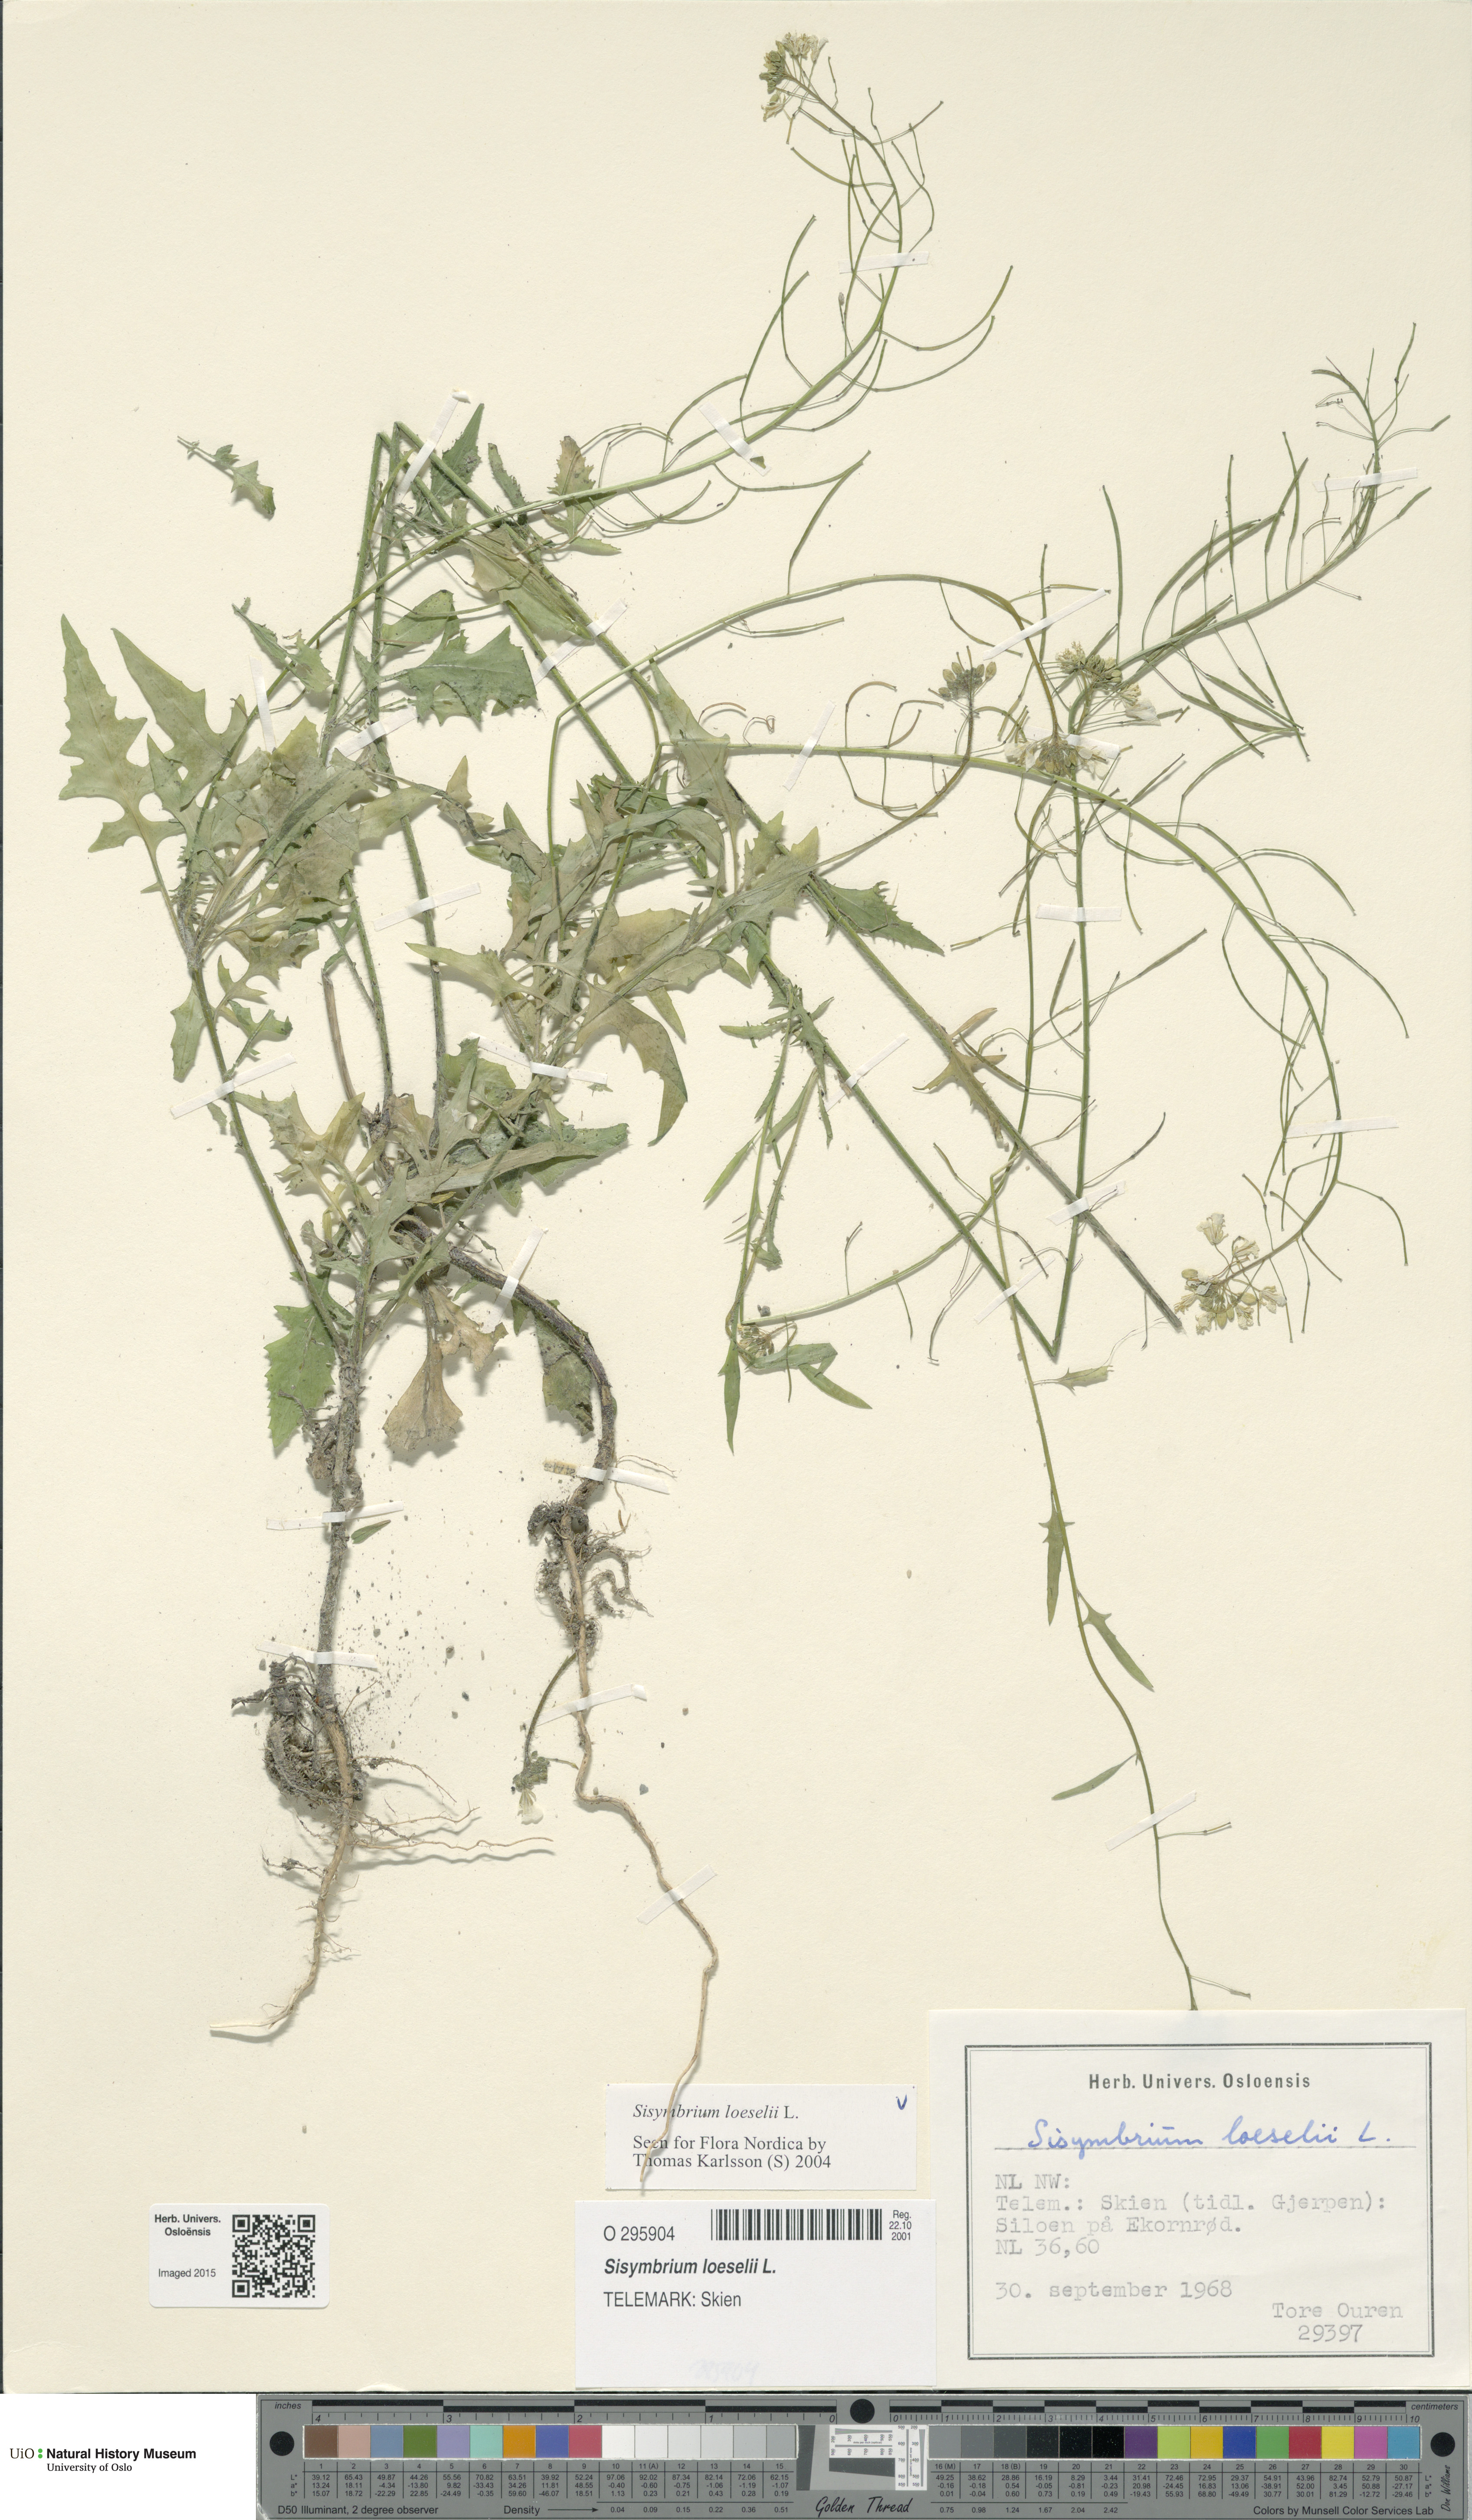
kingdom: Plantae
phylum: Tracheophyta
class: Magnoliopsida
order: Brassicales
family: Brassicaceae
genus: Sisymbrium
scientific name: Sisymbrium loeselii
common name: False london-rocket
